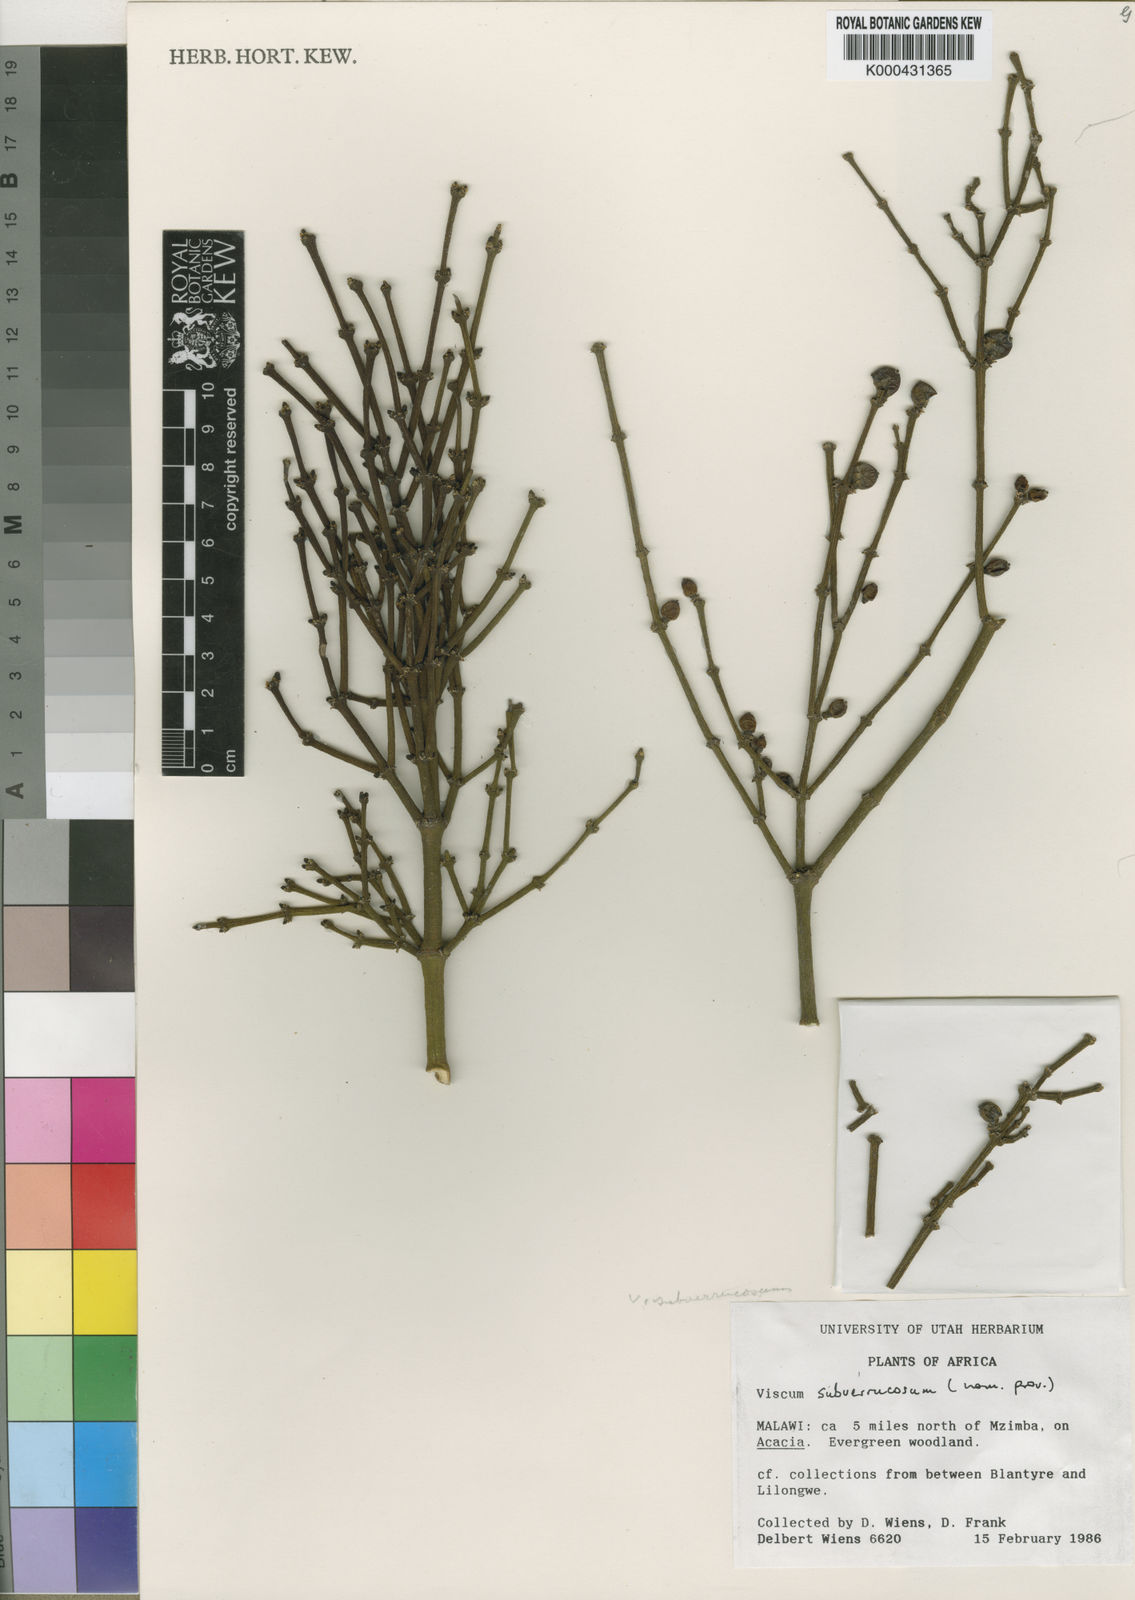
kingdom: Plantae
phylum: Tracheophyta
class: Magnoliopsida
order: Santalales
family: Viscaceae
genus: Viscum
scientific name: Viscum subverrucosum
